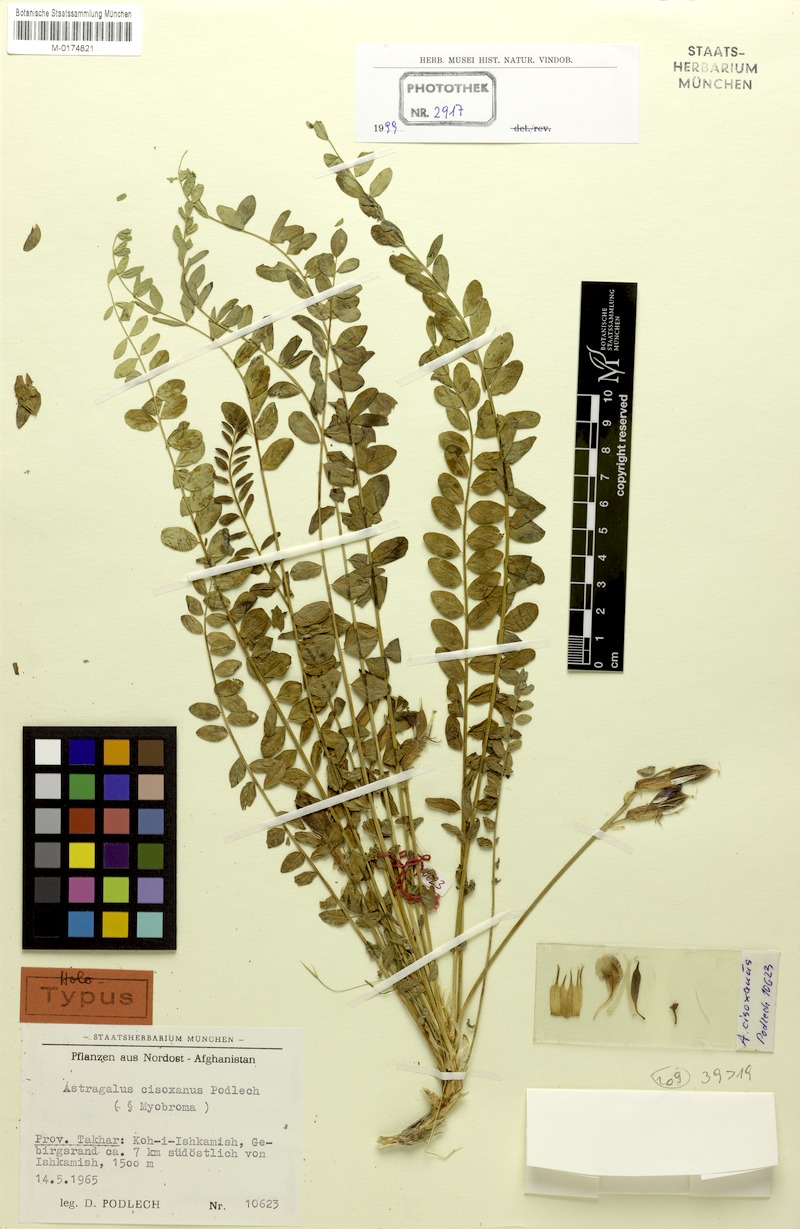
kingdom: Plantae
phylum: Tracheophyta
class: Magnoliopsida
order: Fabales
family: Fabaceae
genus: Astragalus
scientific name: Astragalus cisoxanus
